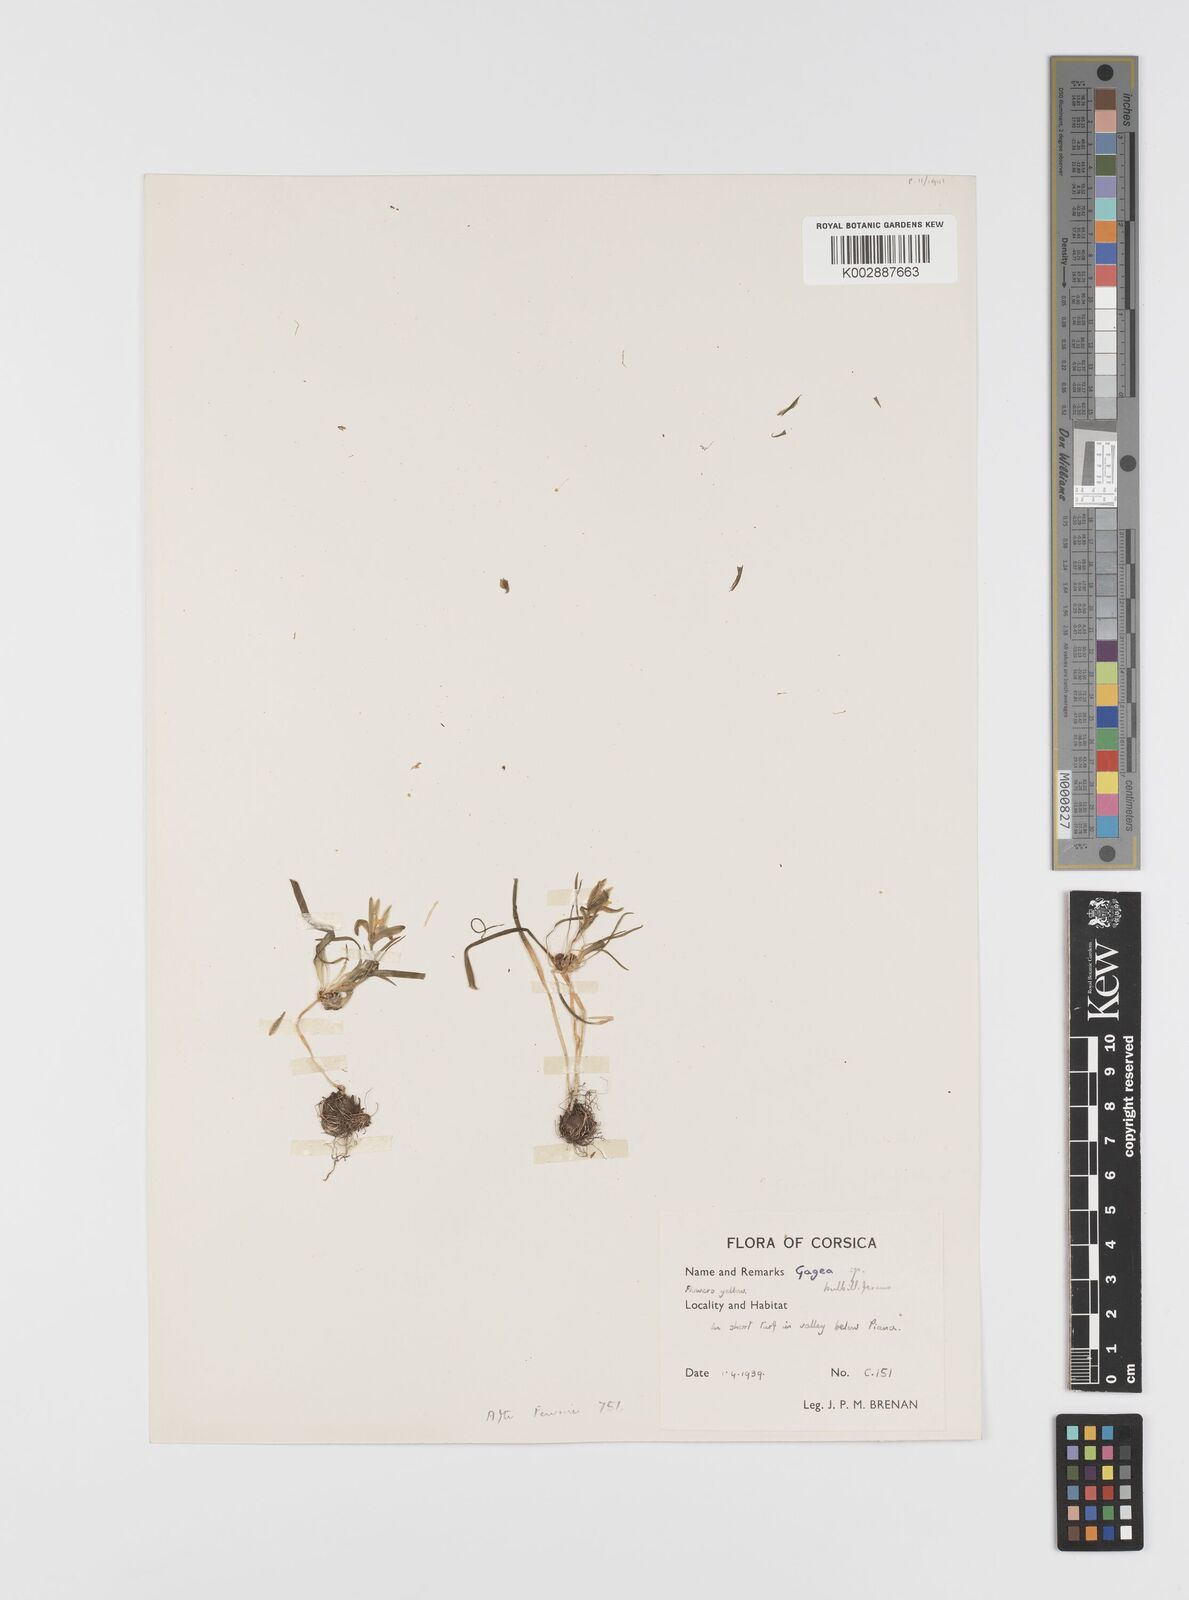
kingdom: Plantae
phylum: Tracheophyta
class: Liliopsida
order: Liliales
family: Liliaceae
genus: Gagea
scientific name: Gagea
